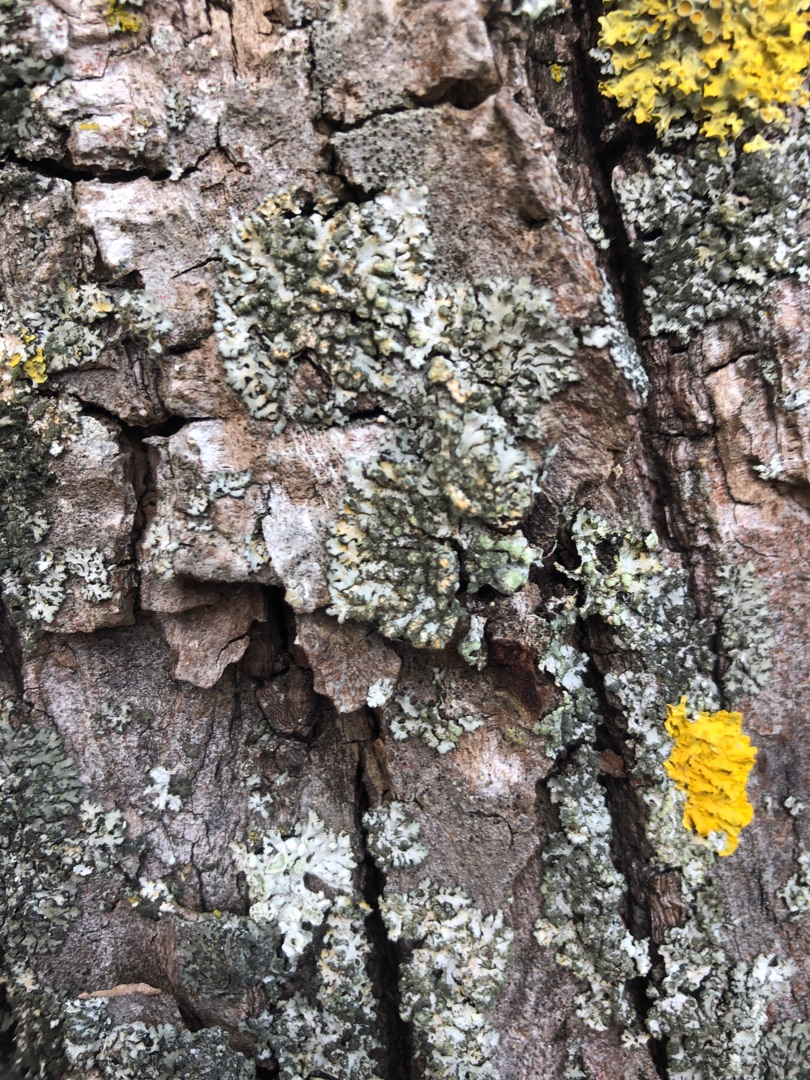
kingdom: Fungi
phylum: Ascomycota
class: Lecanoromycetes
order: Caliciales
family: Physciaceae
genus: Phaeophyscia
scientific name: Phaeophyscia orbicularis
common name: Grågrøn rosetlav
